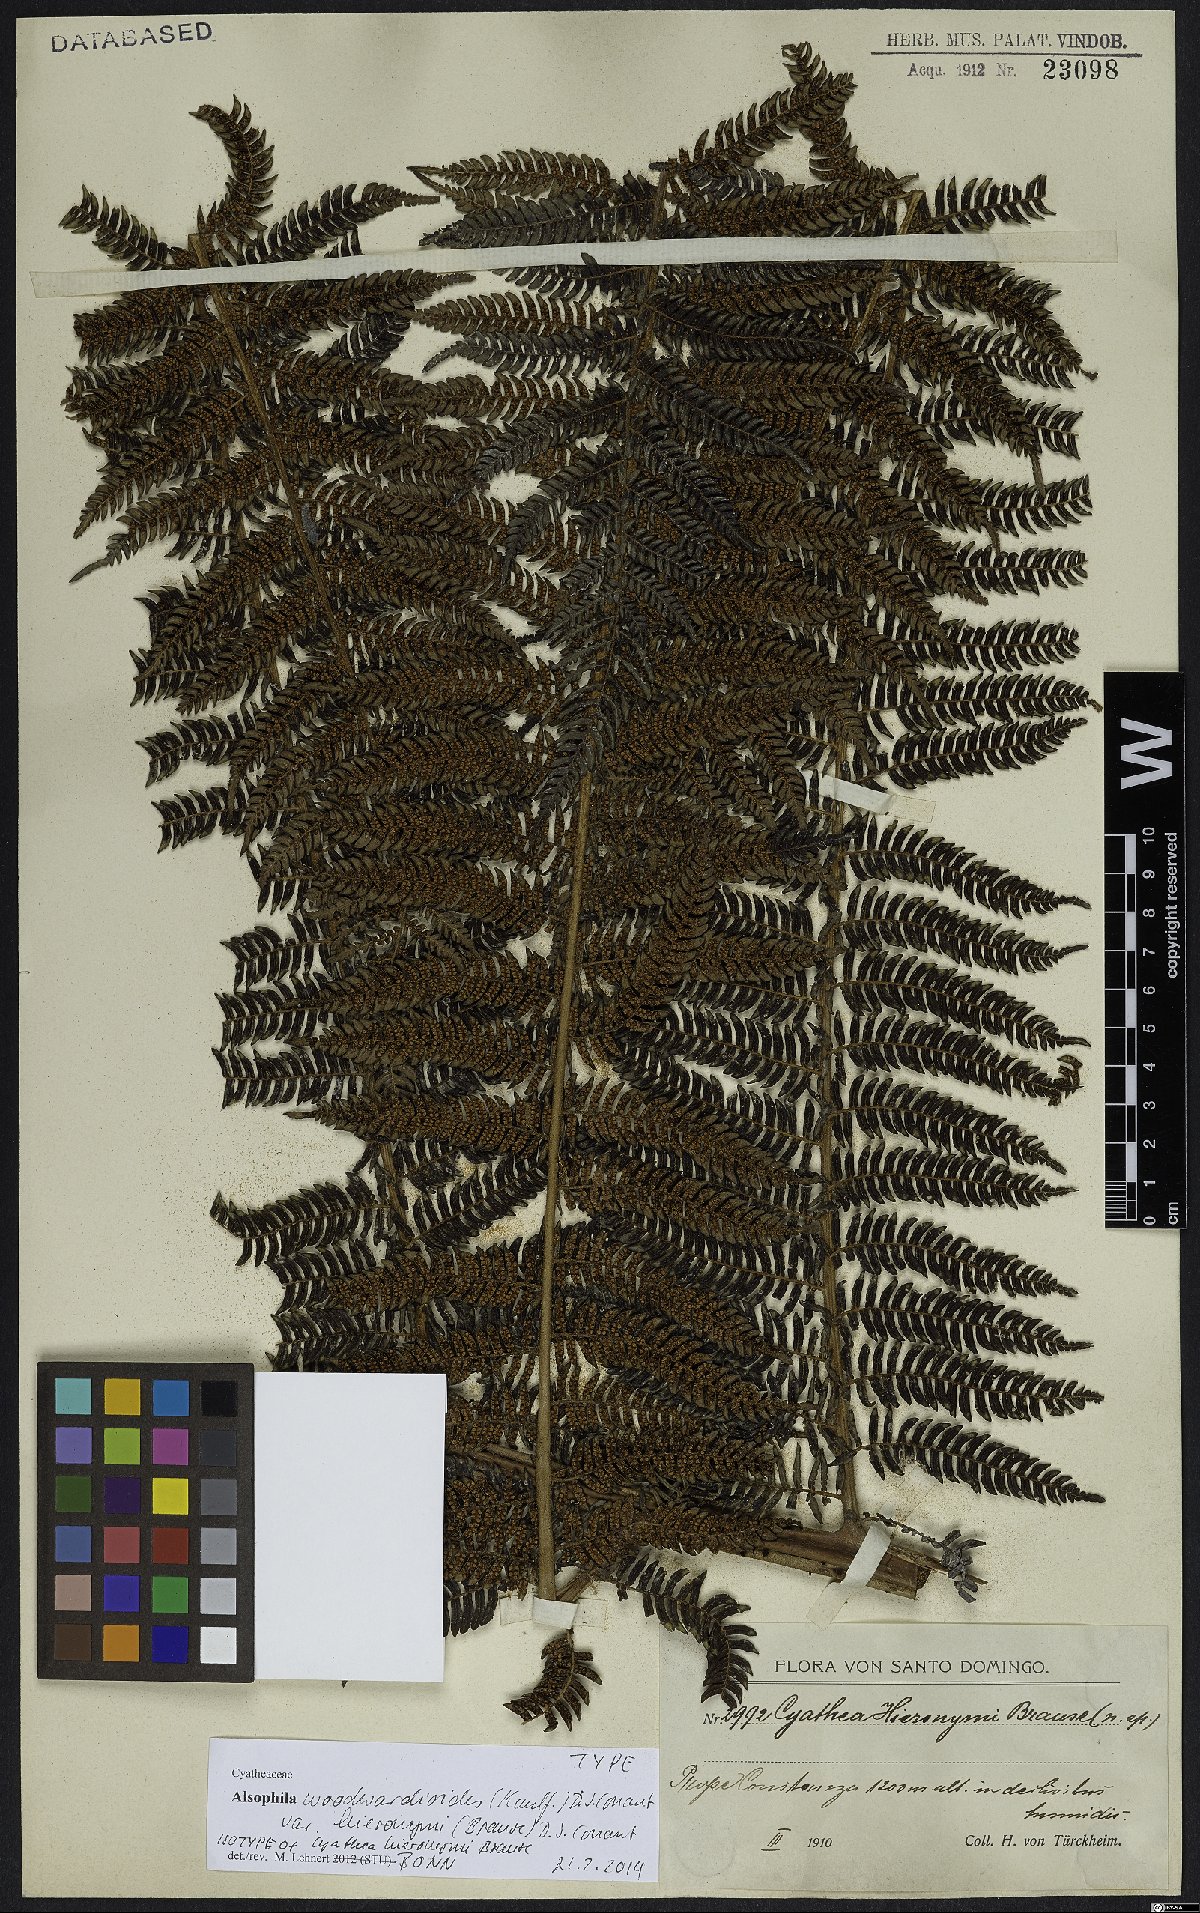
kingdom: Plantae
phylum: Tracheophyta
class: Polypodiopsida
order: Cyatheales
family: Cyatheaceae
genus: Alsophila
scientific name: Alsophila woodwardioides
